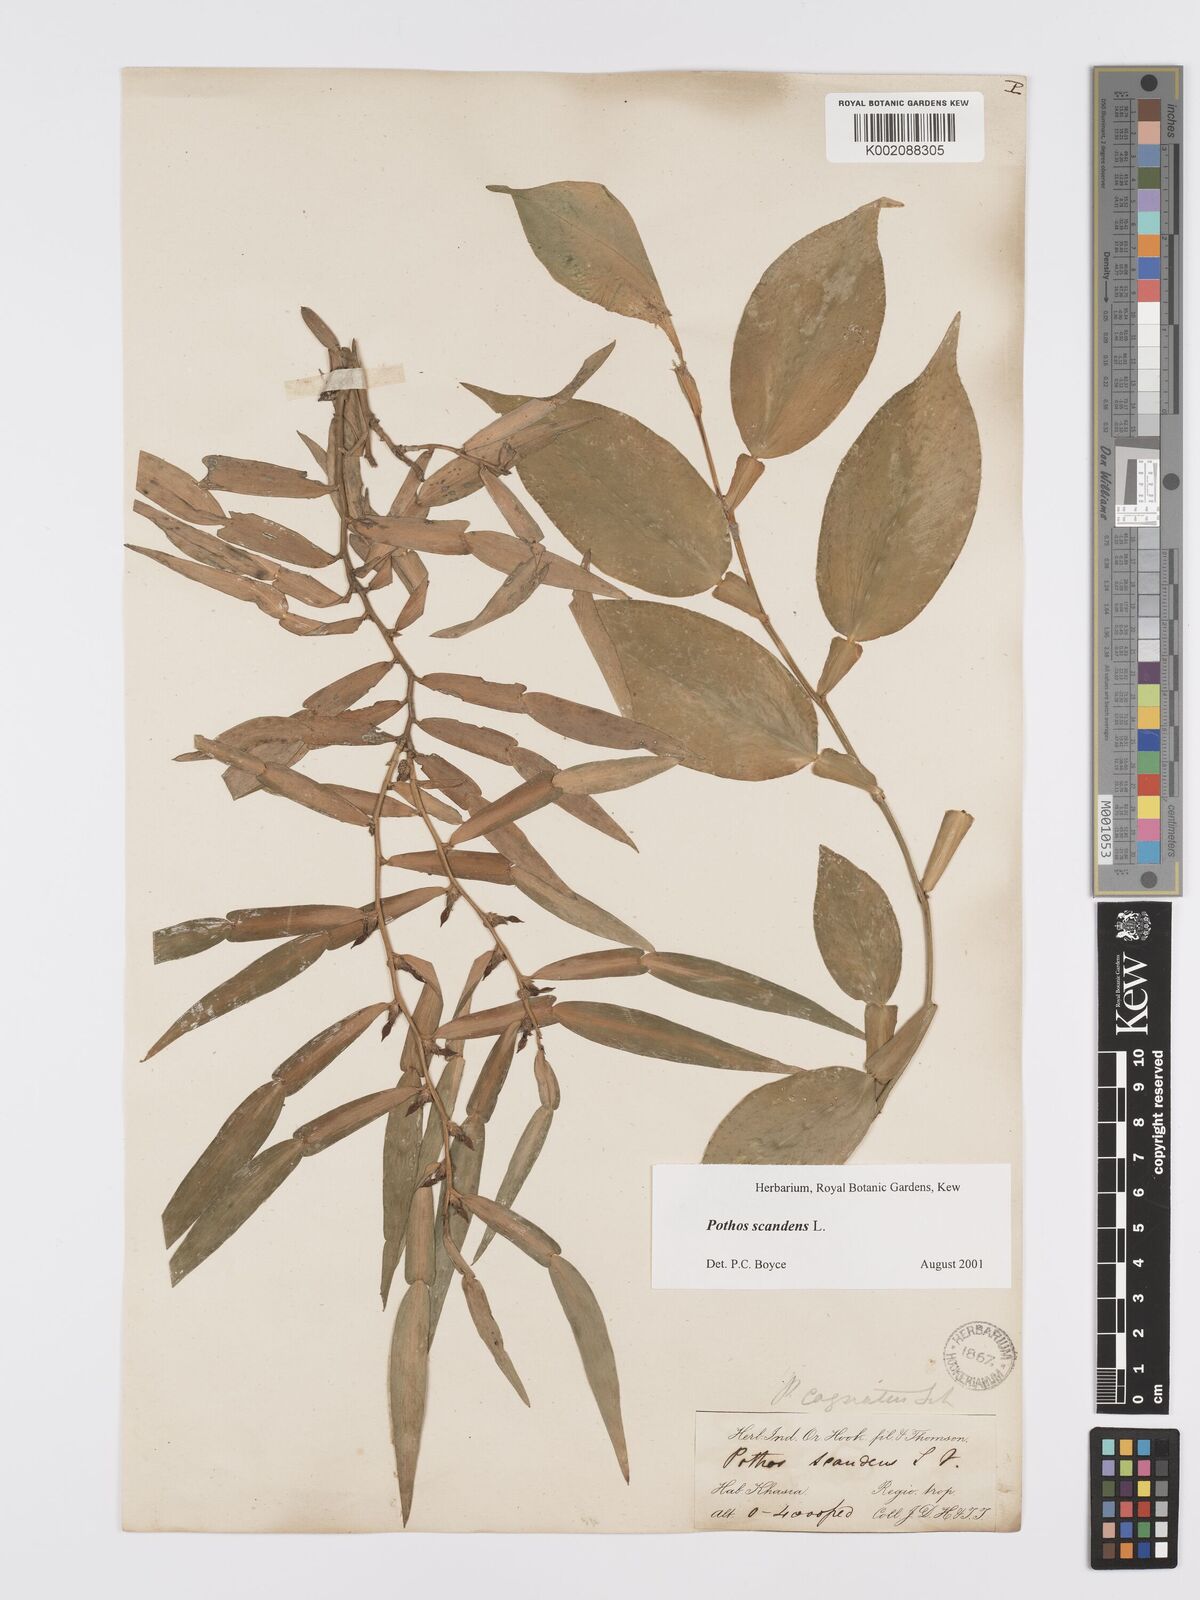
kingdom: Plantae
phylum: Tracheophyta
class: Liliopsida
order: Alismatales
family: Araceae
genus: Pothos
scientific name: Pothos scandens
